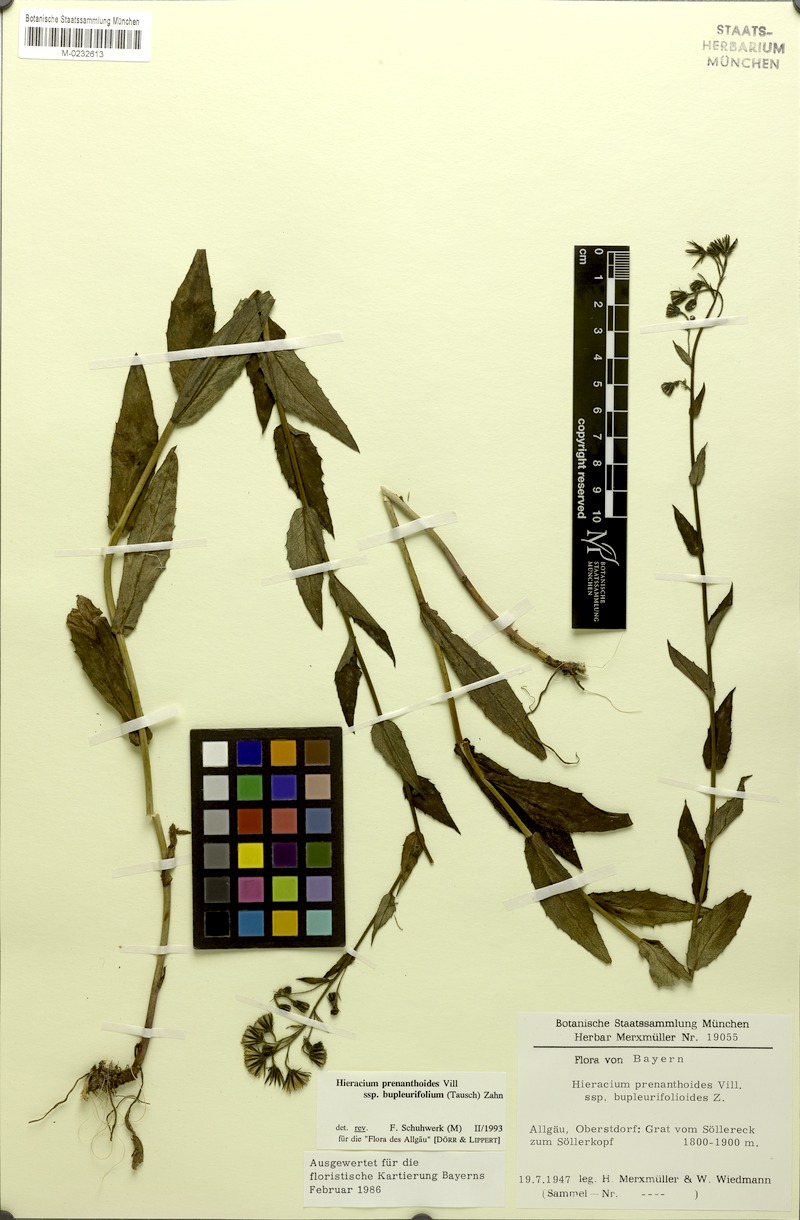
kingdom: Plantae
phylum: Tracheophyta
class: Magnoliopsida
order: Asterales
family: Asteraceae
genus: Hieracium
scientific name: Hieracium prenanthoides
